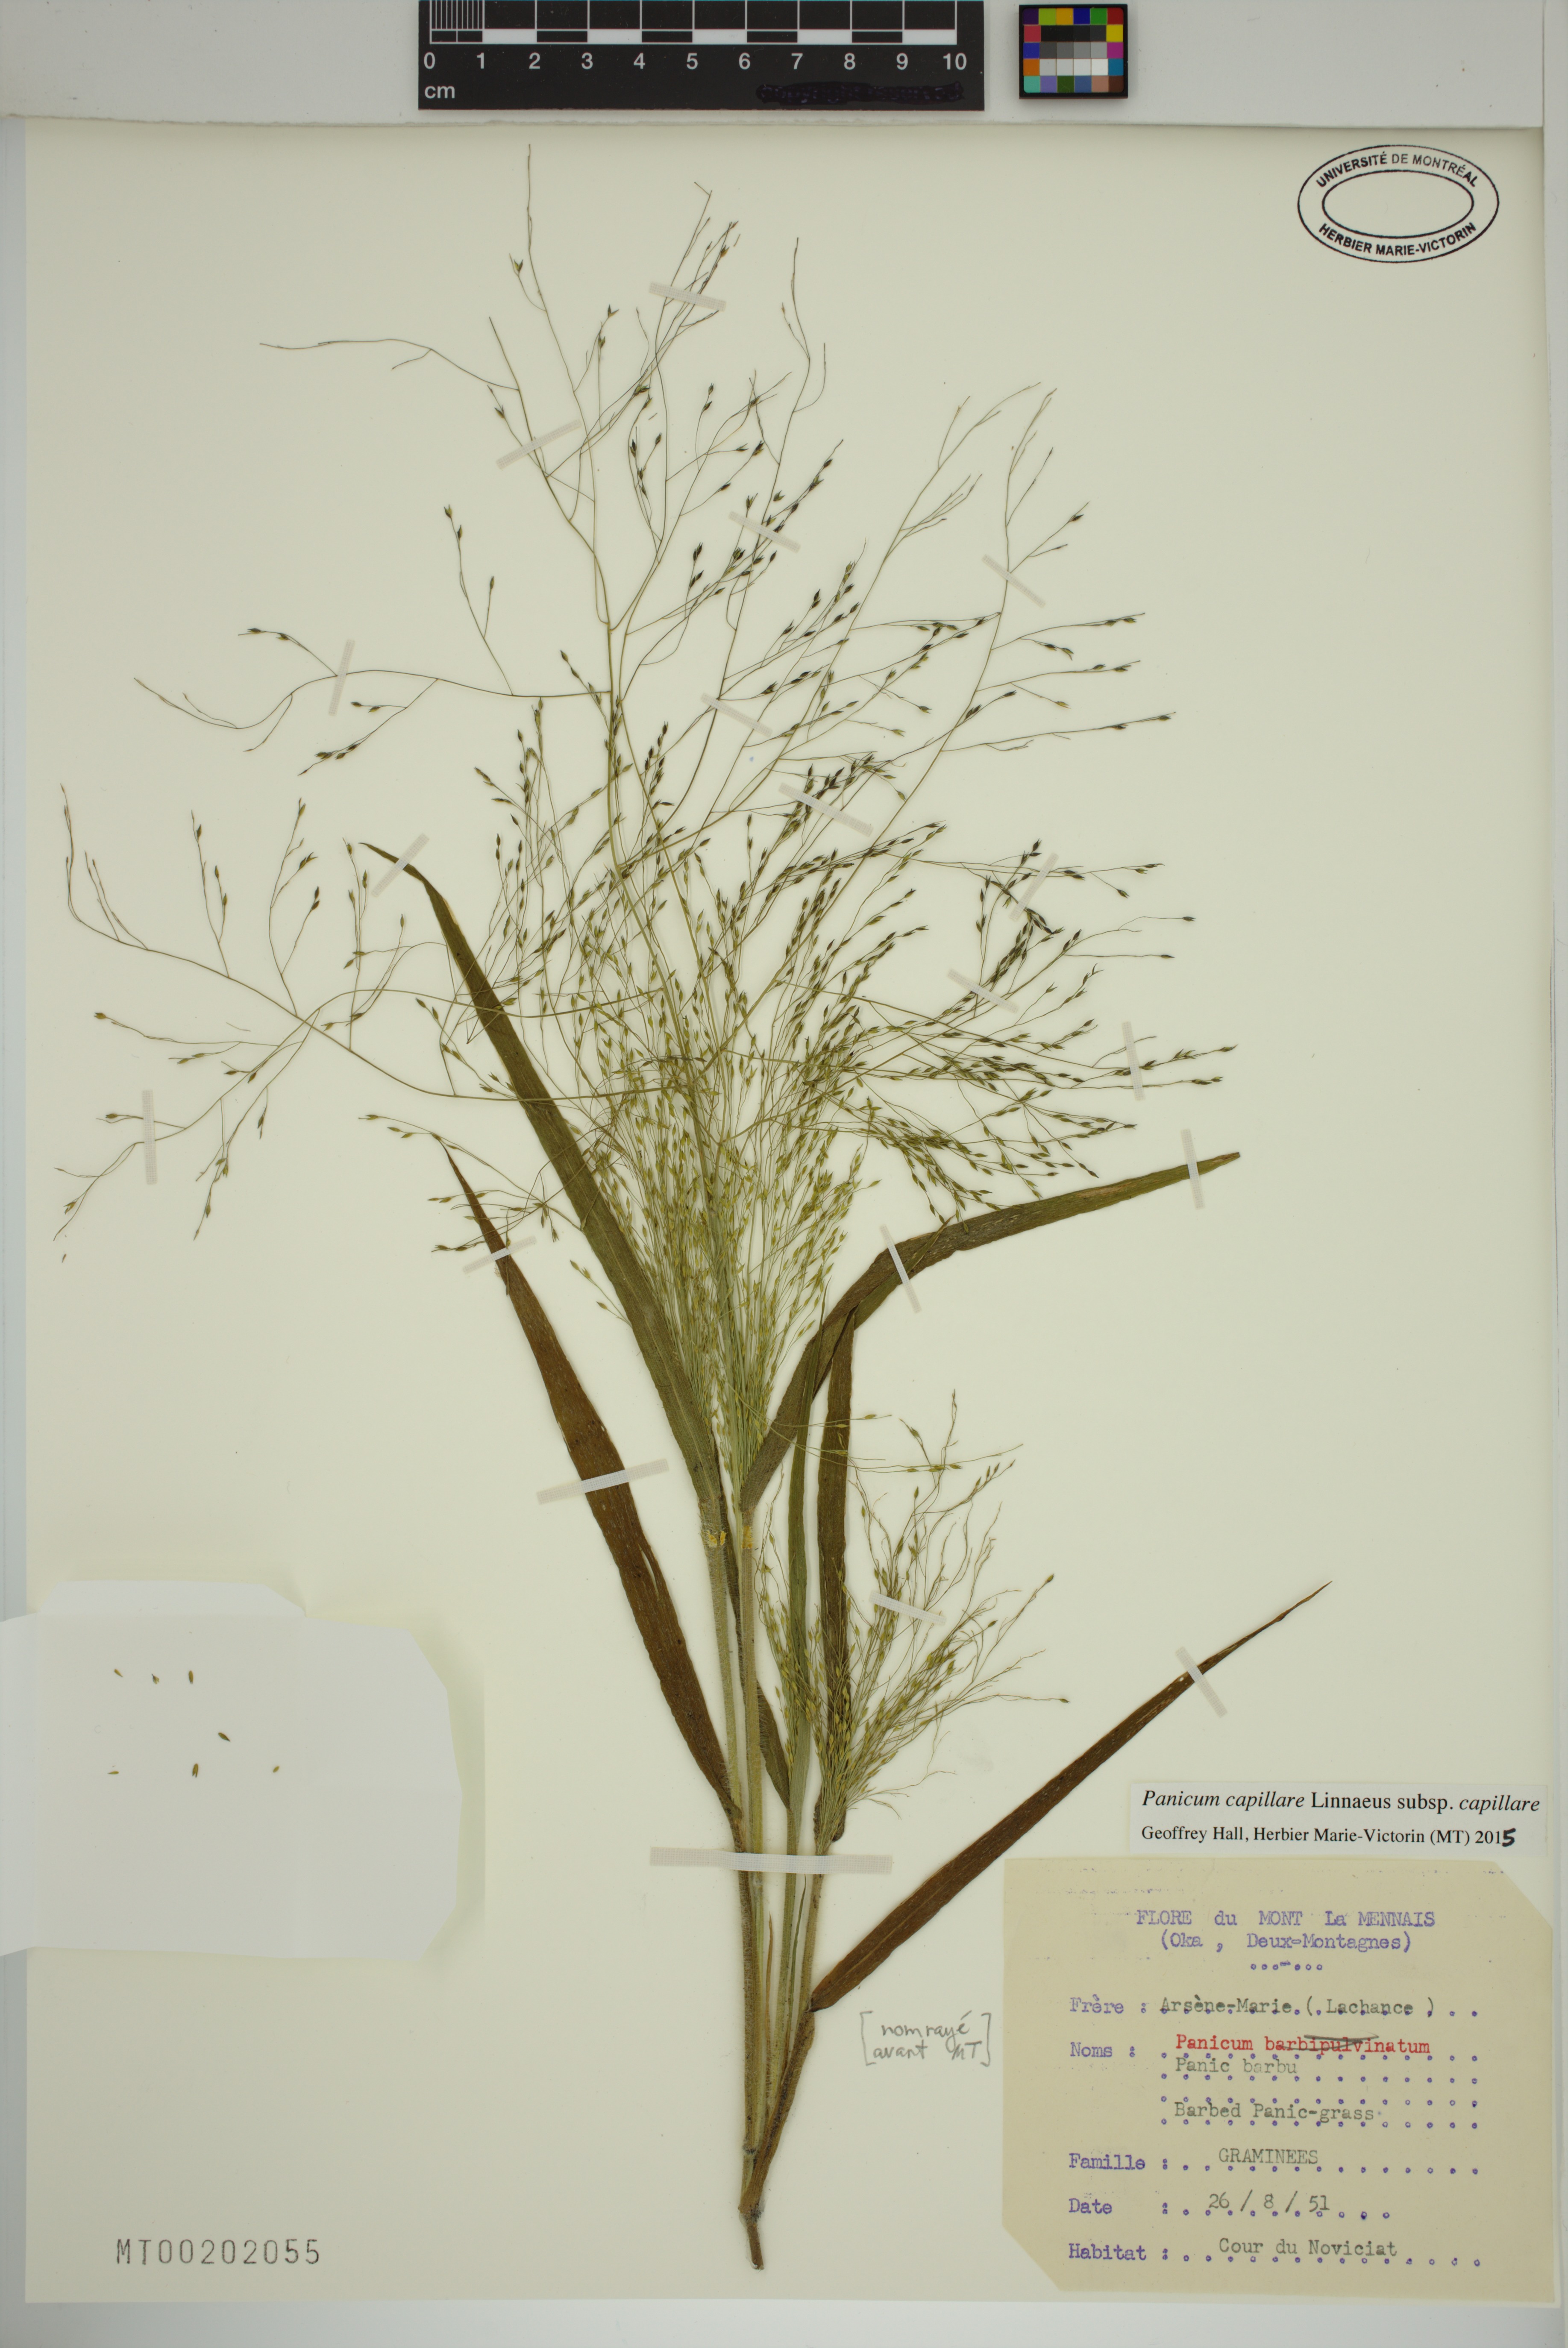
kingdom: Plantae
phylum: Tracheophyta
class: Liliopsida
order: Poales
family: Poaceae
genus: Panicum
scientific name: Panicum capillare
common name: Witch-grass
